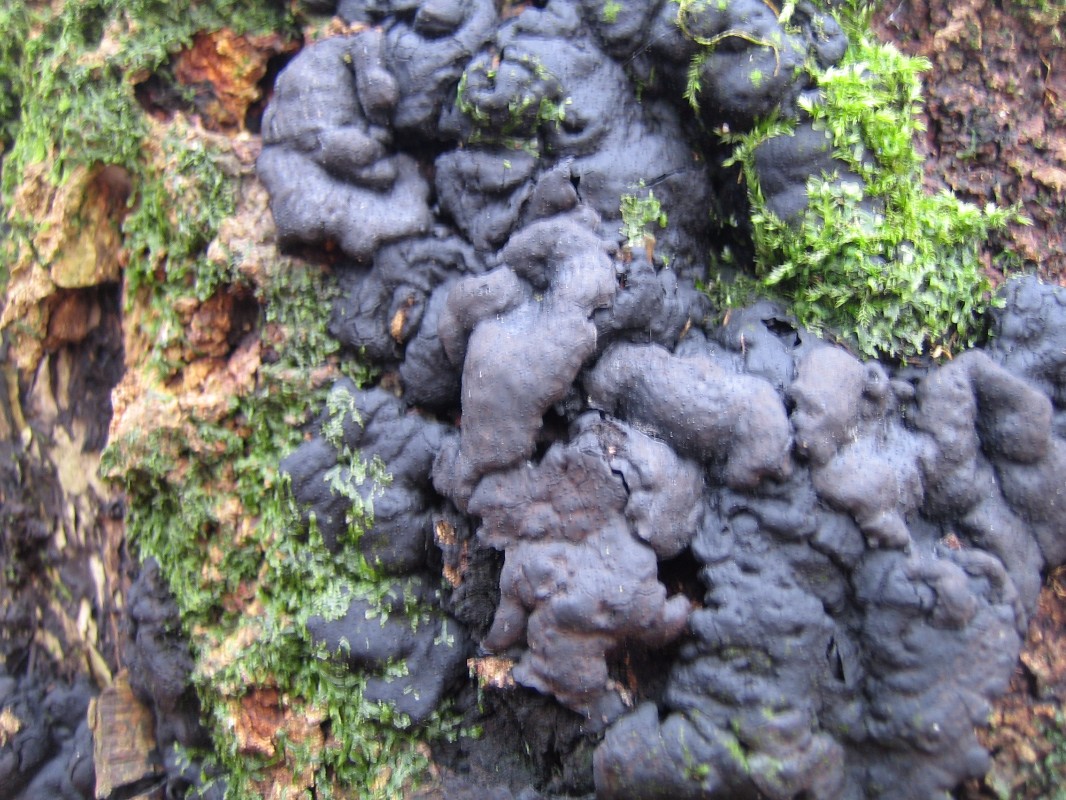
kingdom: Fungi
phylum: Ascomycota
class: Sordariomycetes
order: Xylariales
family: Xylariaceae
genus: Kretzschmaria
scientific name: Kretzschmaria deusta
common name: stor kulsvamp
